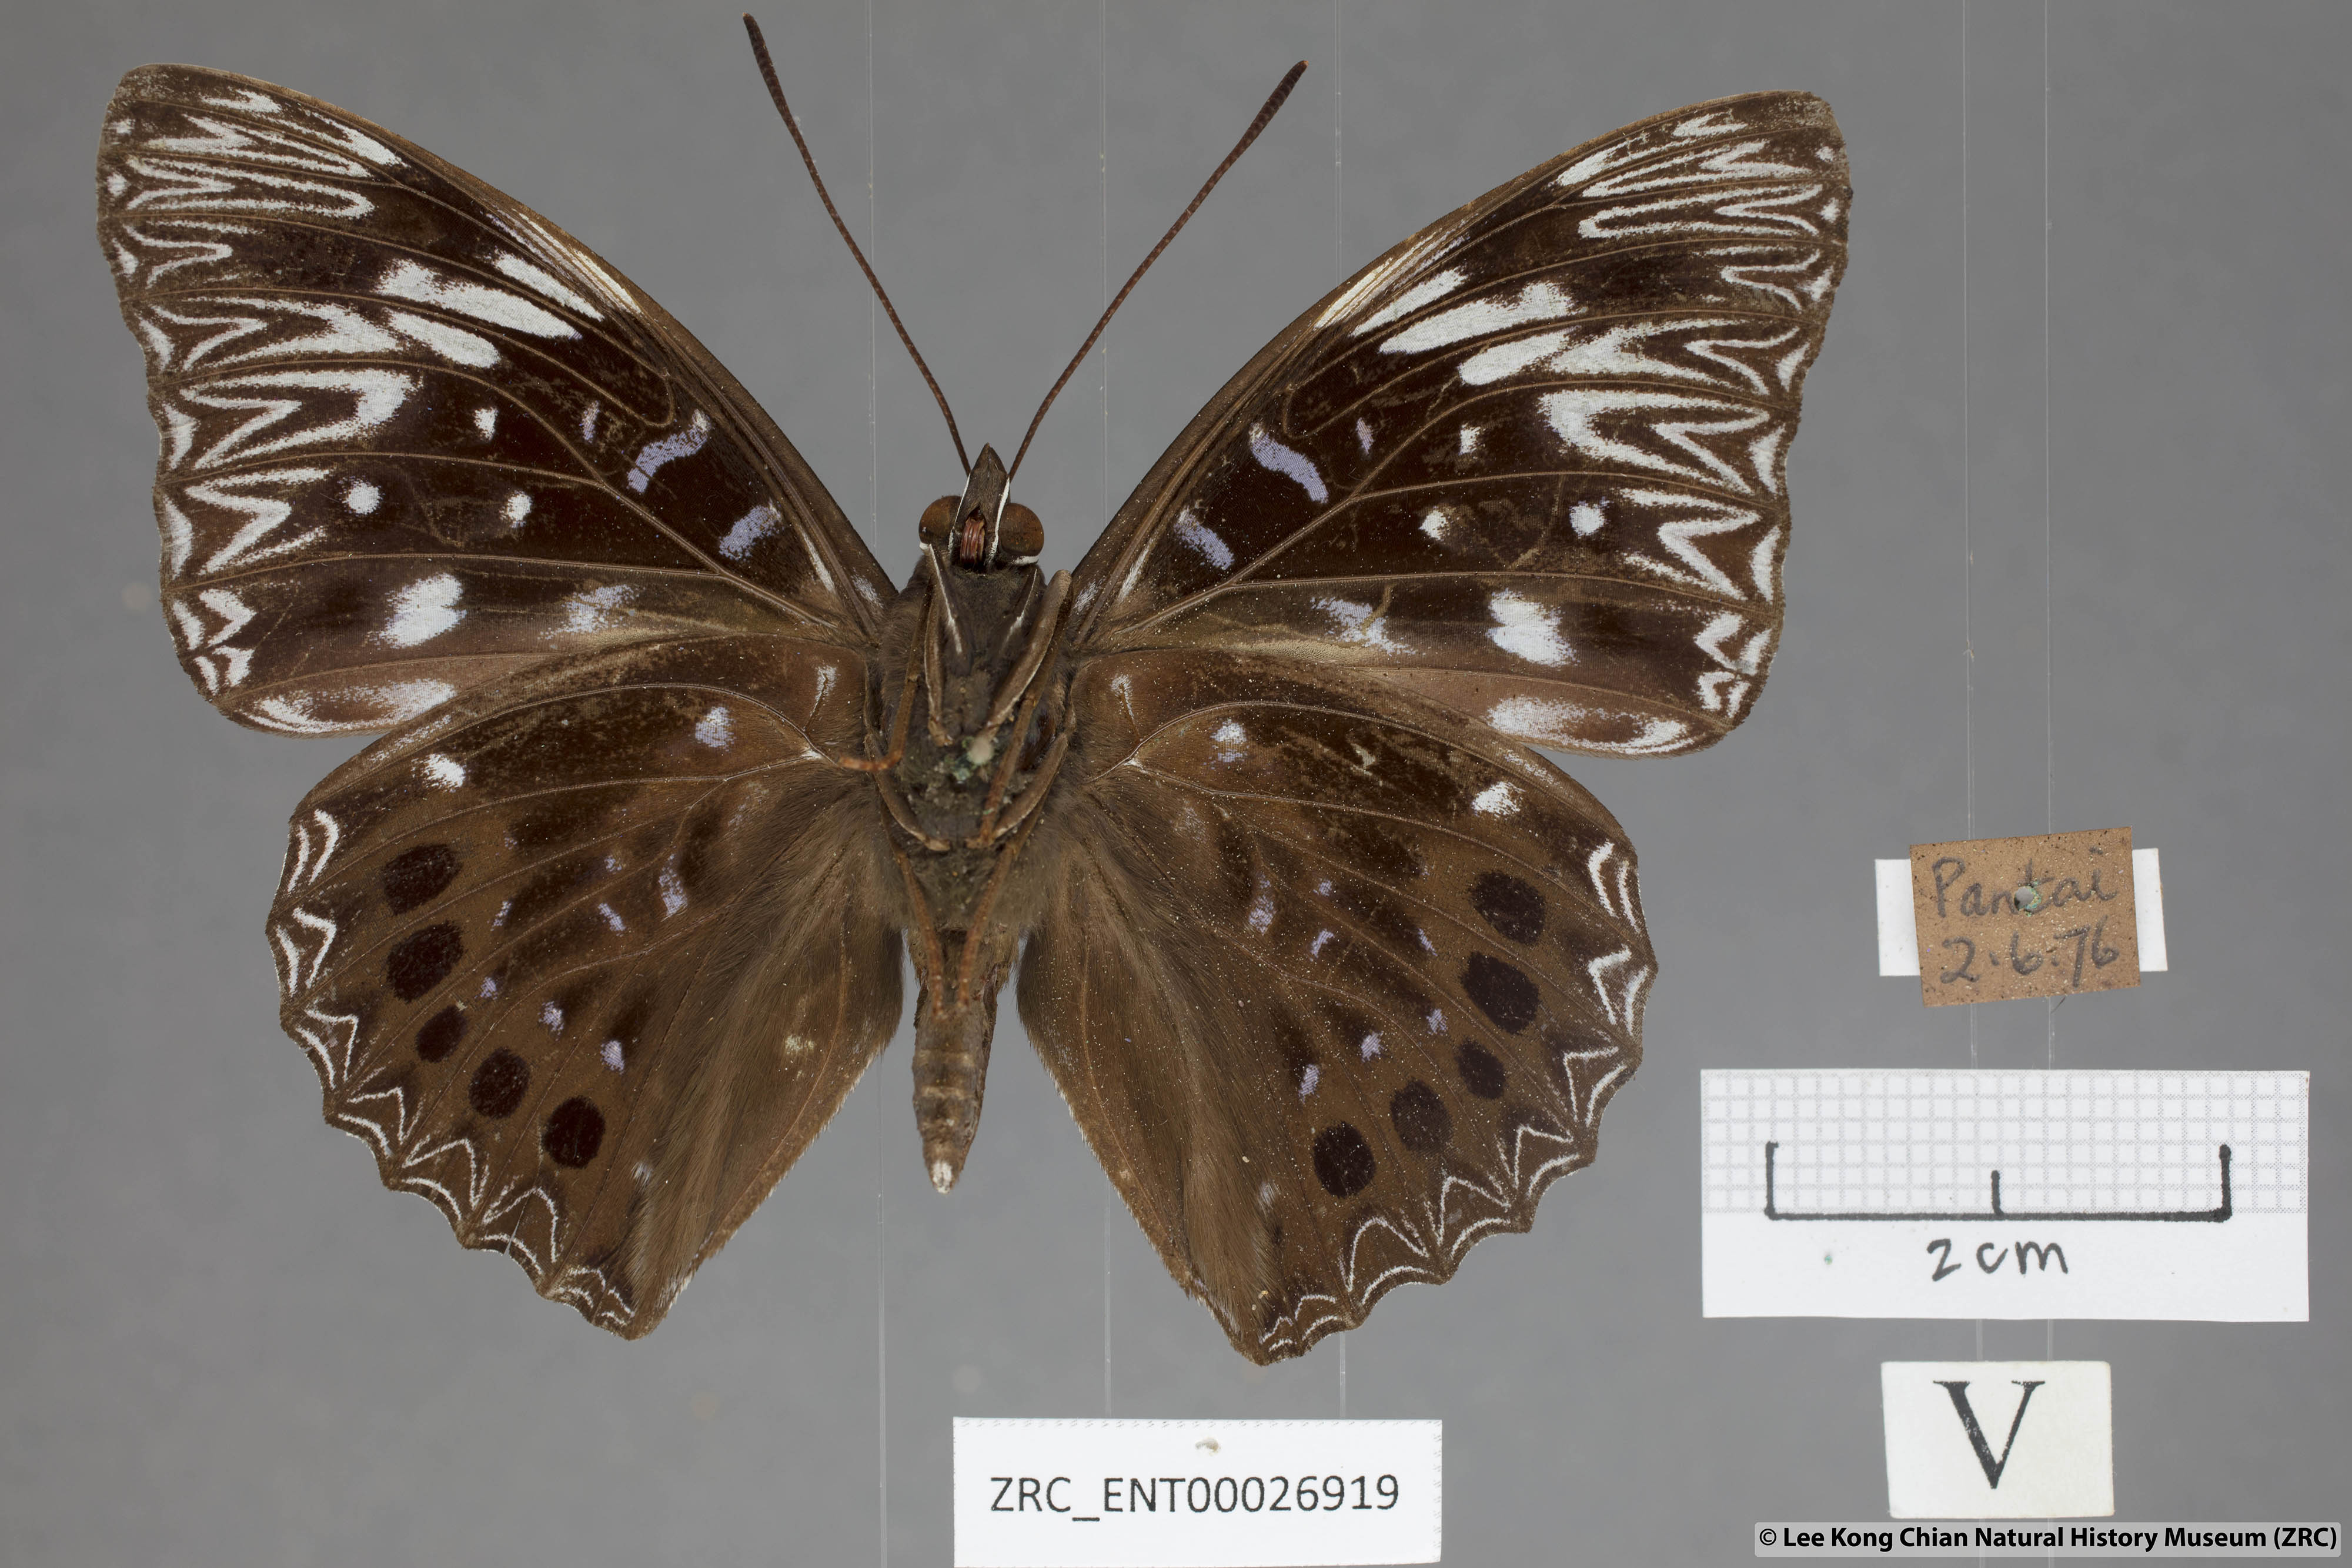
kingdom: Animalia
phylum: Arthropoda
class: Insecta
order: Lepidoptera
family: Nymphalidae
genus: Dichorragia
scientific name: Dichorragia nesimachus
